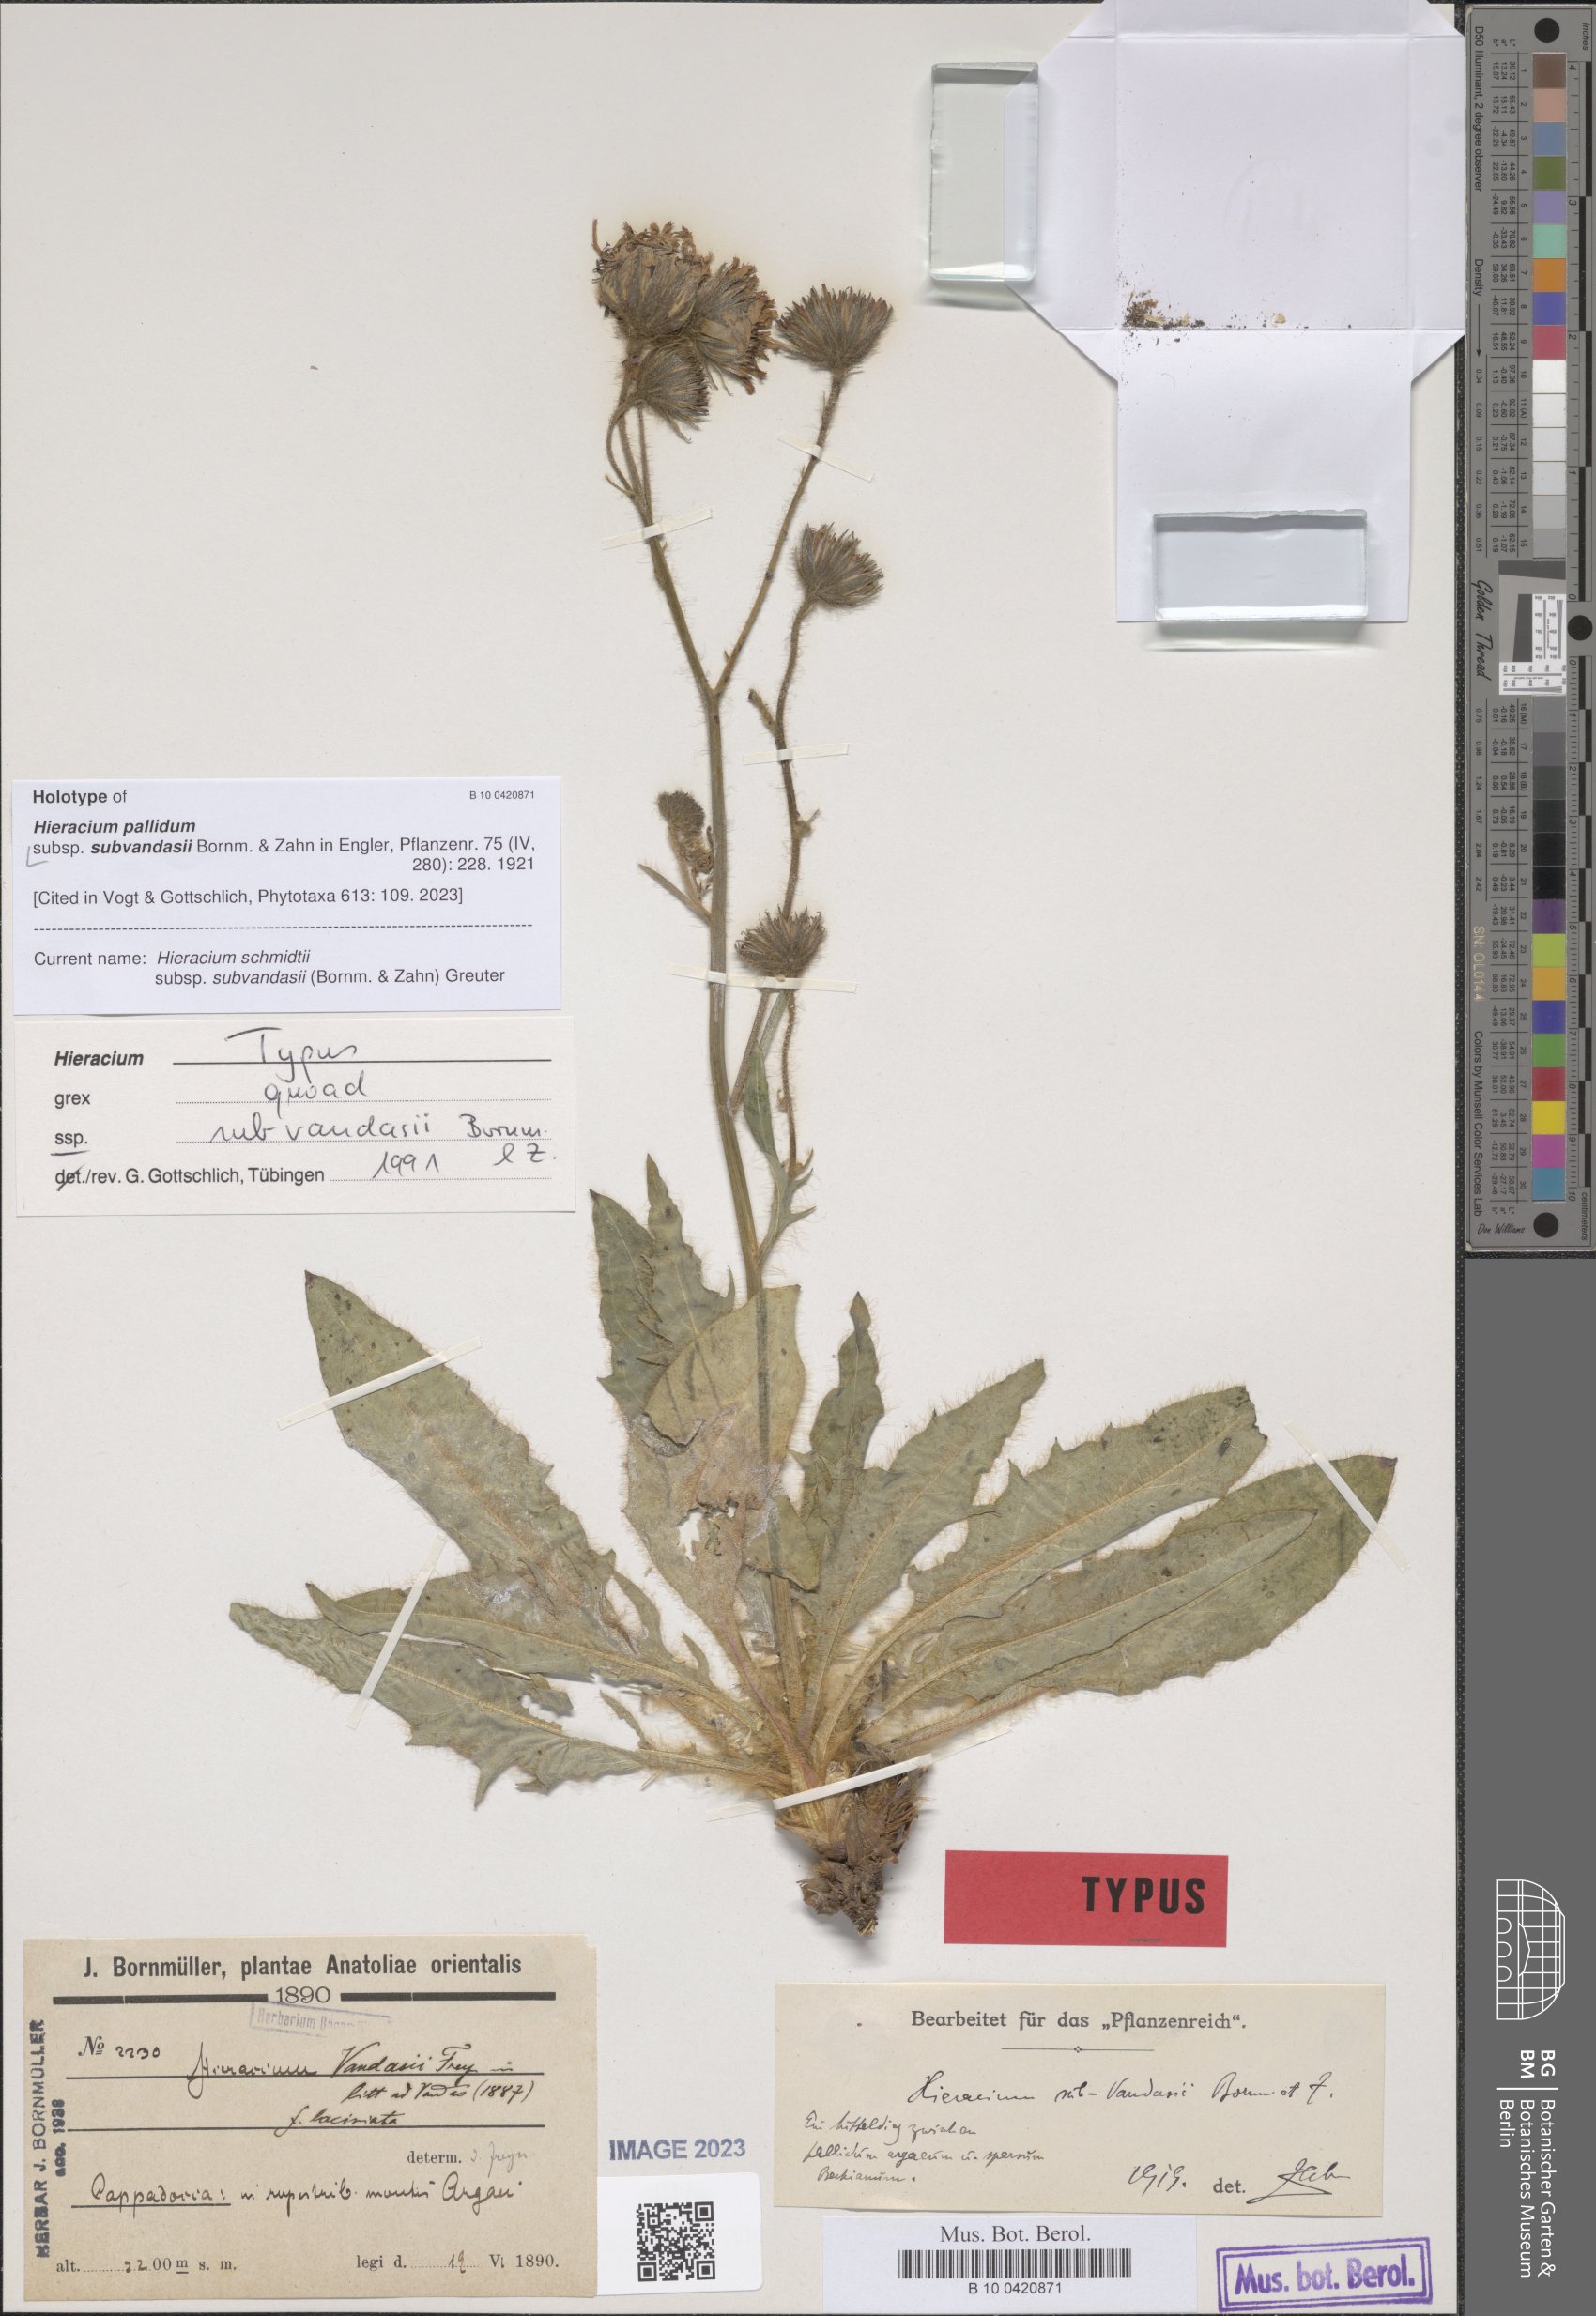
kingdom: Plantae
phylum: Tracheophyta
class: Magnoliopsida
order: Asterales
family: Asteraceae
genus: Hieracium
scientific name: Hieracium schmidtii
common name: Schmidt's hawkweed
